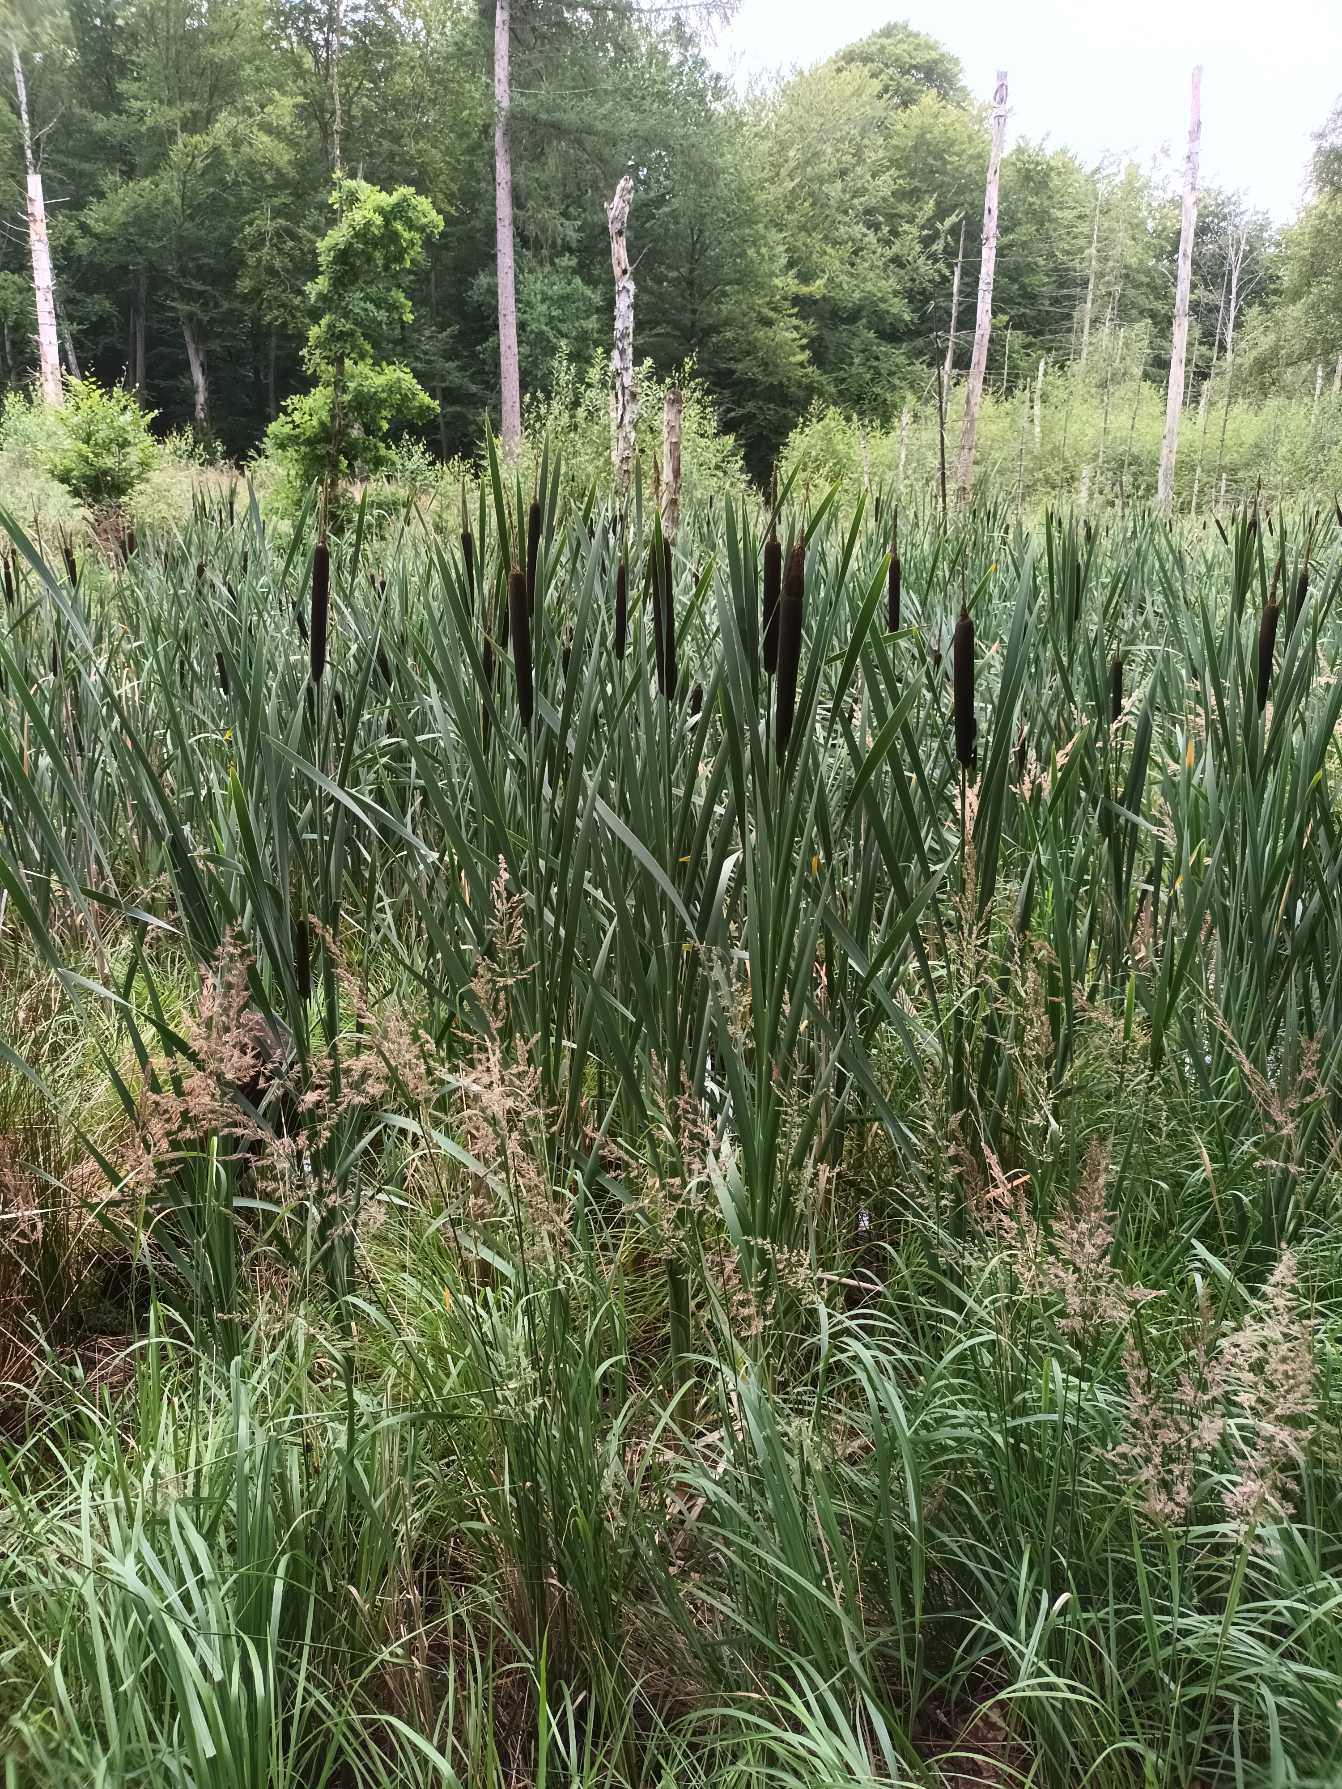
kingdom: Plantae
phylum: Tracheophyta
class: Liliopsida
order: Poales
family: Typhaceae
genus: Typha
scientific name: Typha latifolia
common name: Bredbladet dunhammer
